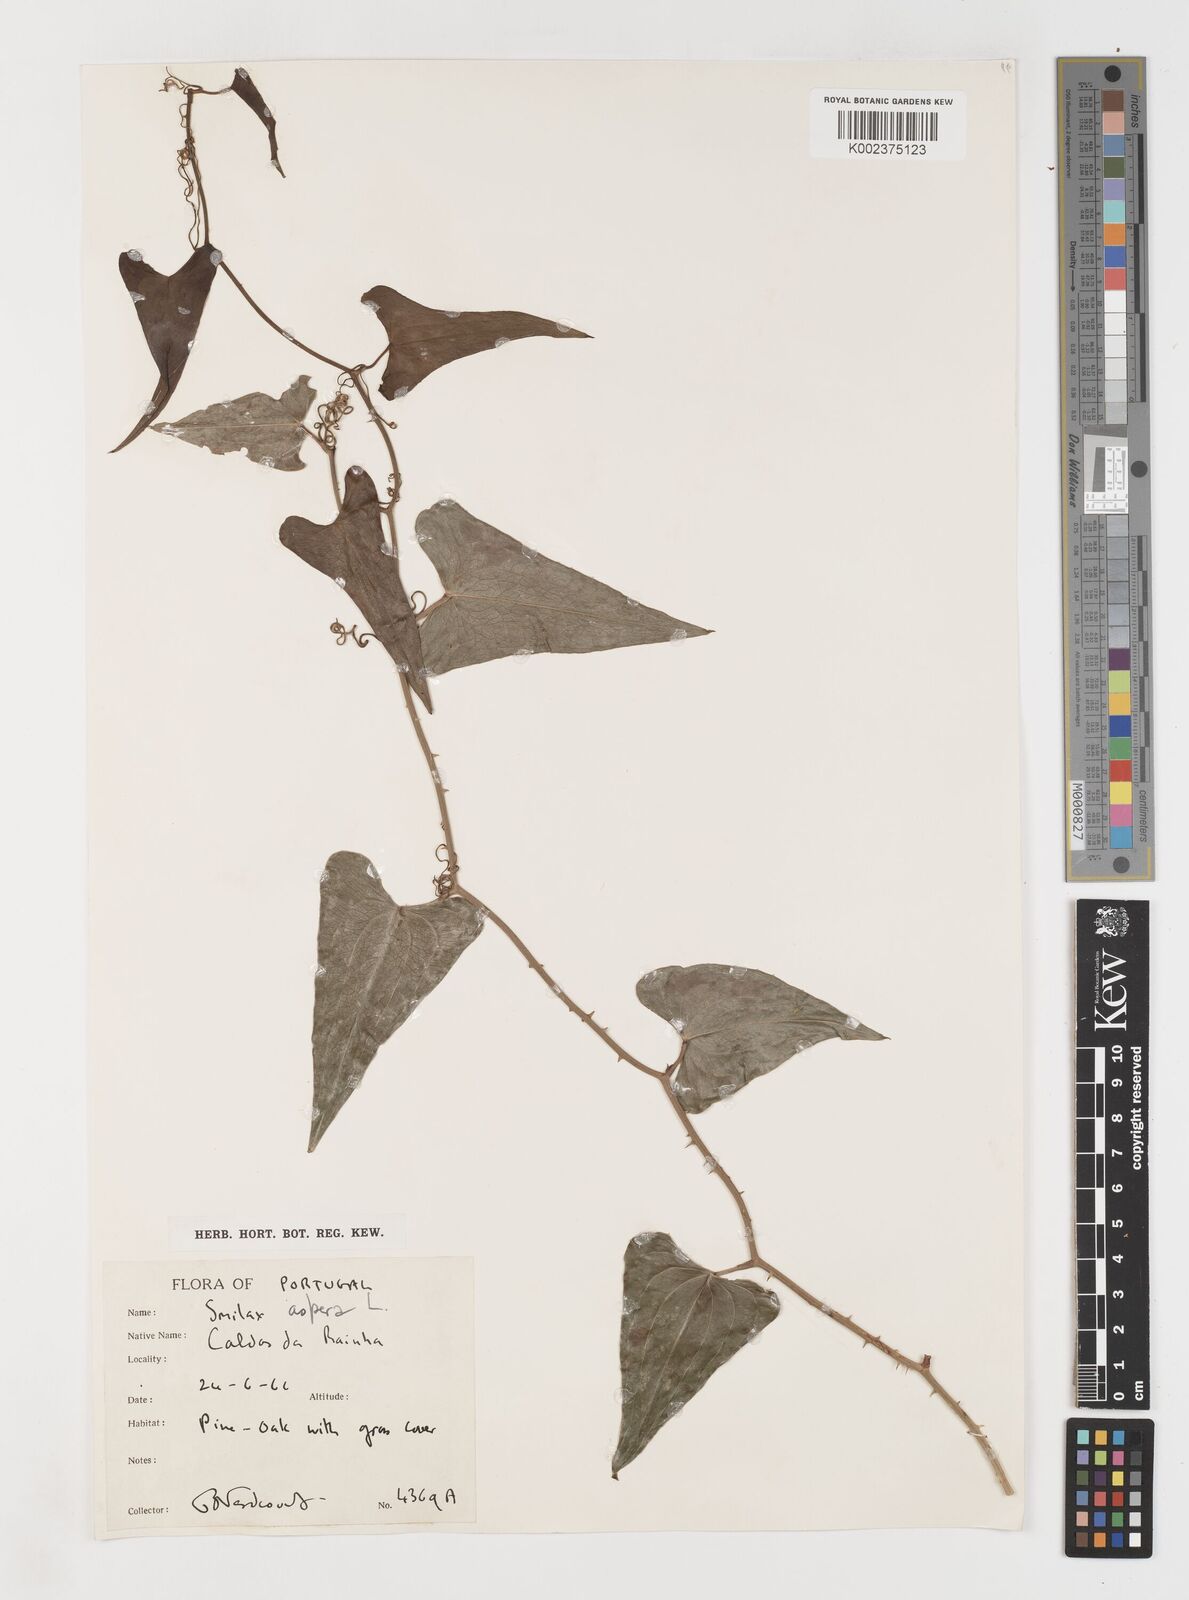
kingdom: Plantae
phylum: Tracheophyta
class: Liliopsida
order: Liliales
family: Smilacaceae
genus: Smilax
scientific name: Smilax aspera
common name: Common smilax
